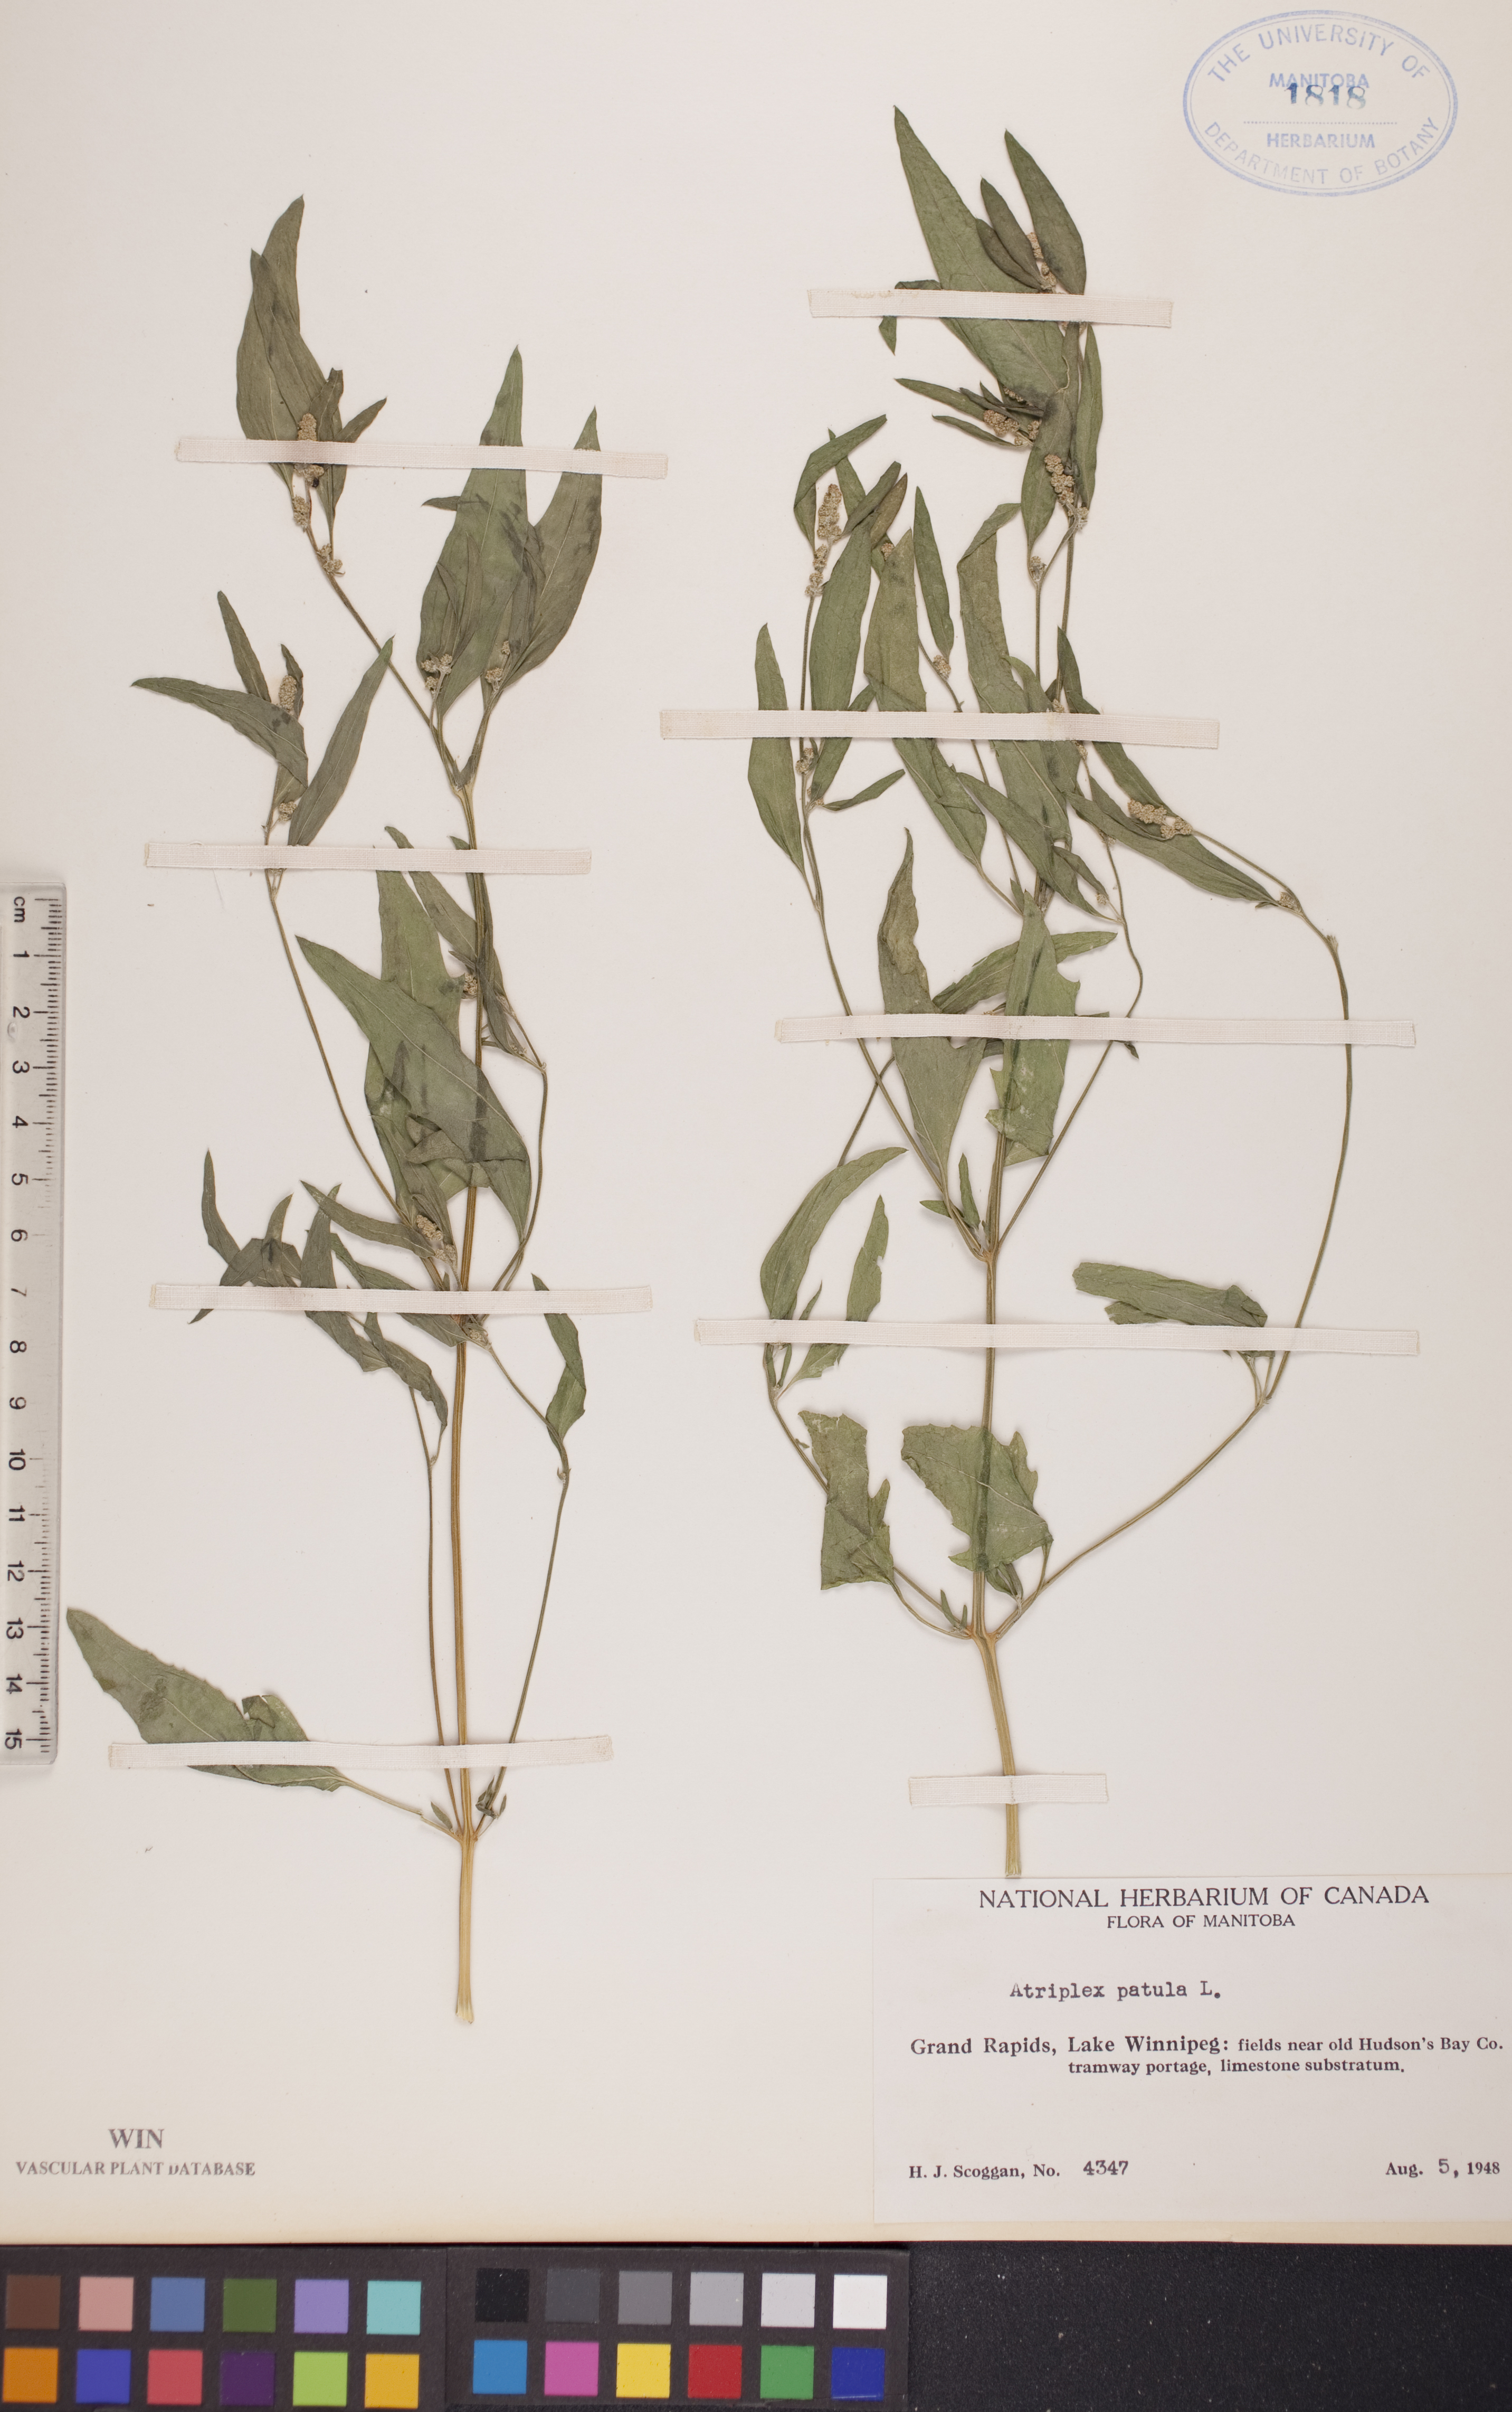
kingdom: Plantae
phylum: Tracheophyta
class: Magnoliopsida
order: Caryophyllales
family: Amaranthaceae
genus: Atriplex
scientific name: Atriplex patula
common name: Common orache
